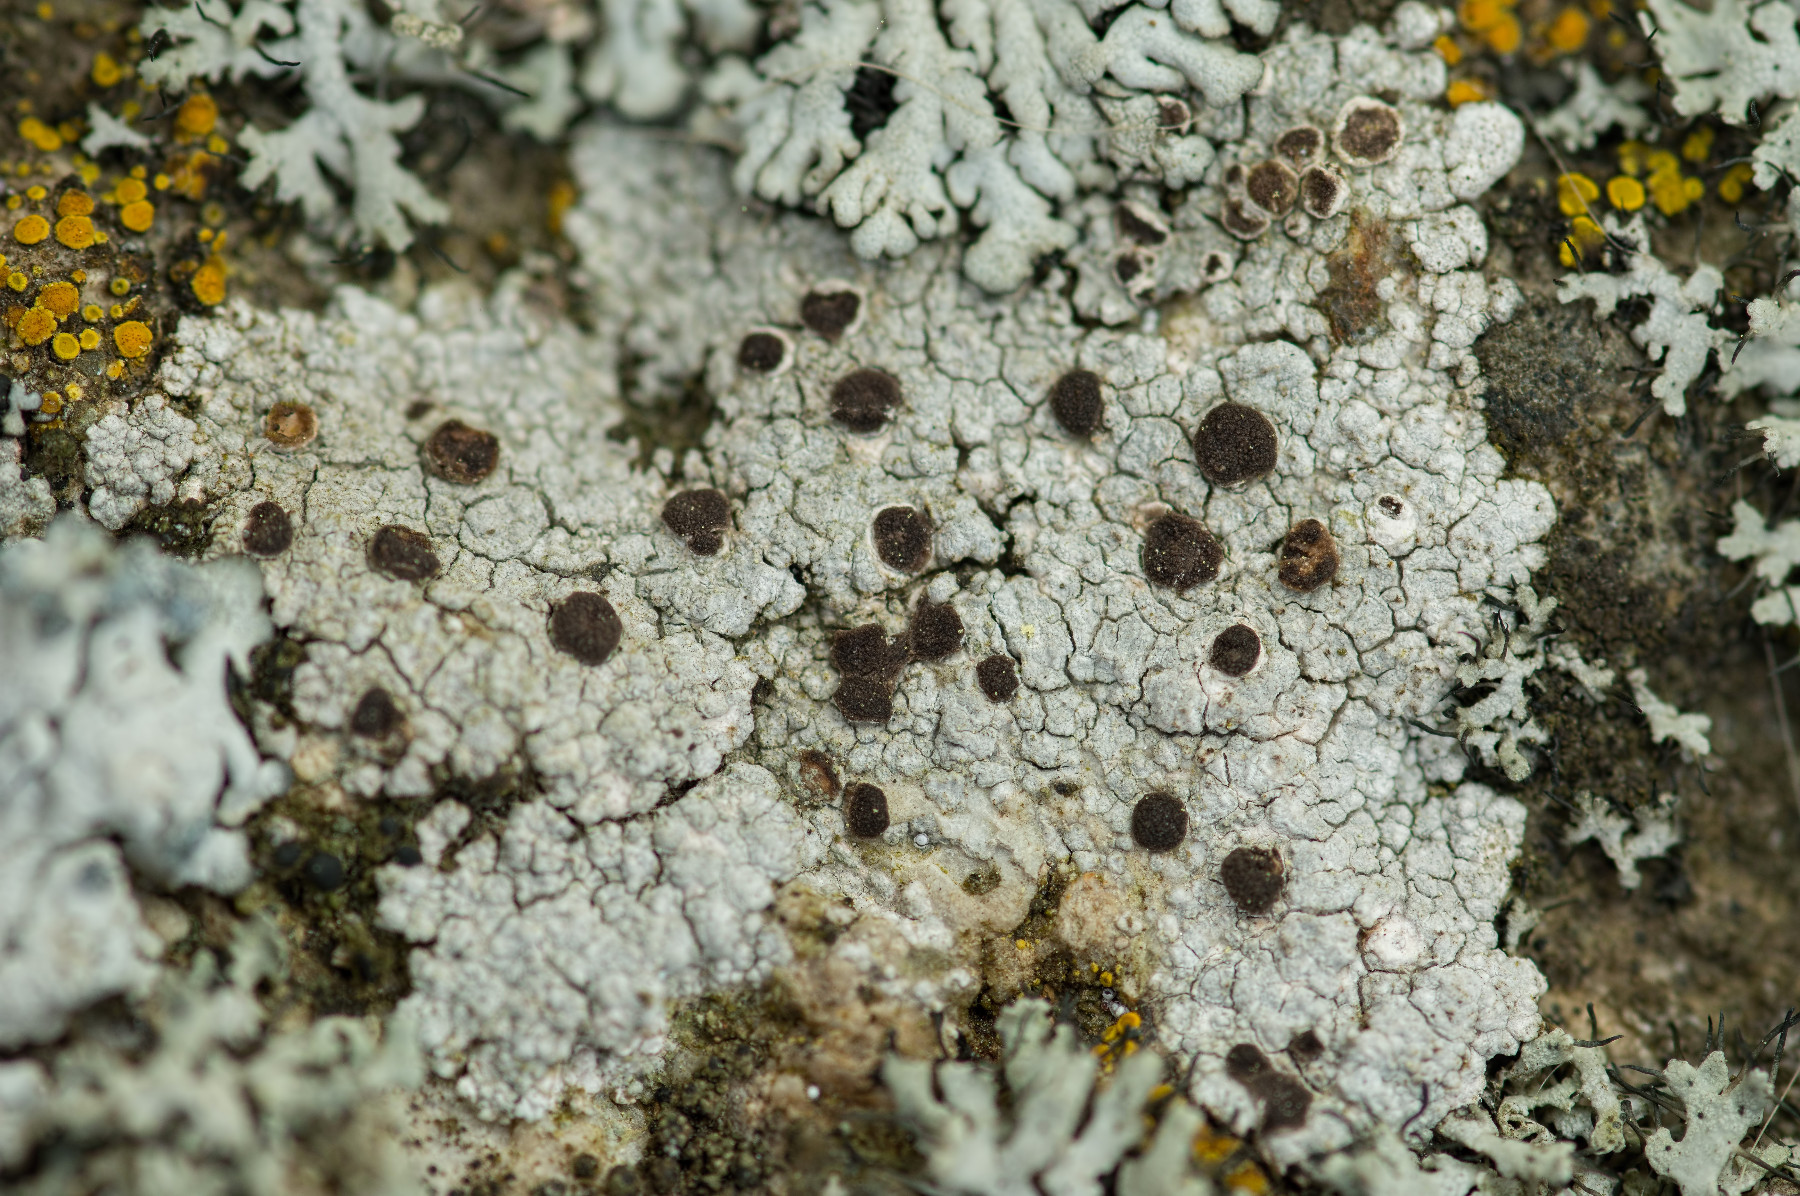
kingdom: Fungi
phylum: Ascomycota
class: Lecanoromycetes
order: Baeomycetales
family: Trapeliaceae
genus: Trapelia
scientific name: Trapelia coarctata
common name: hvidrandet brunskivelav
